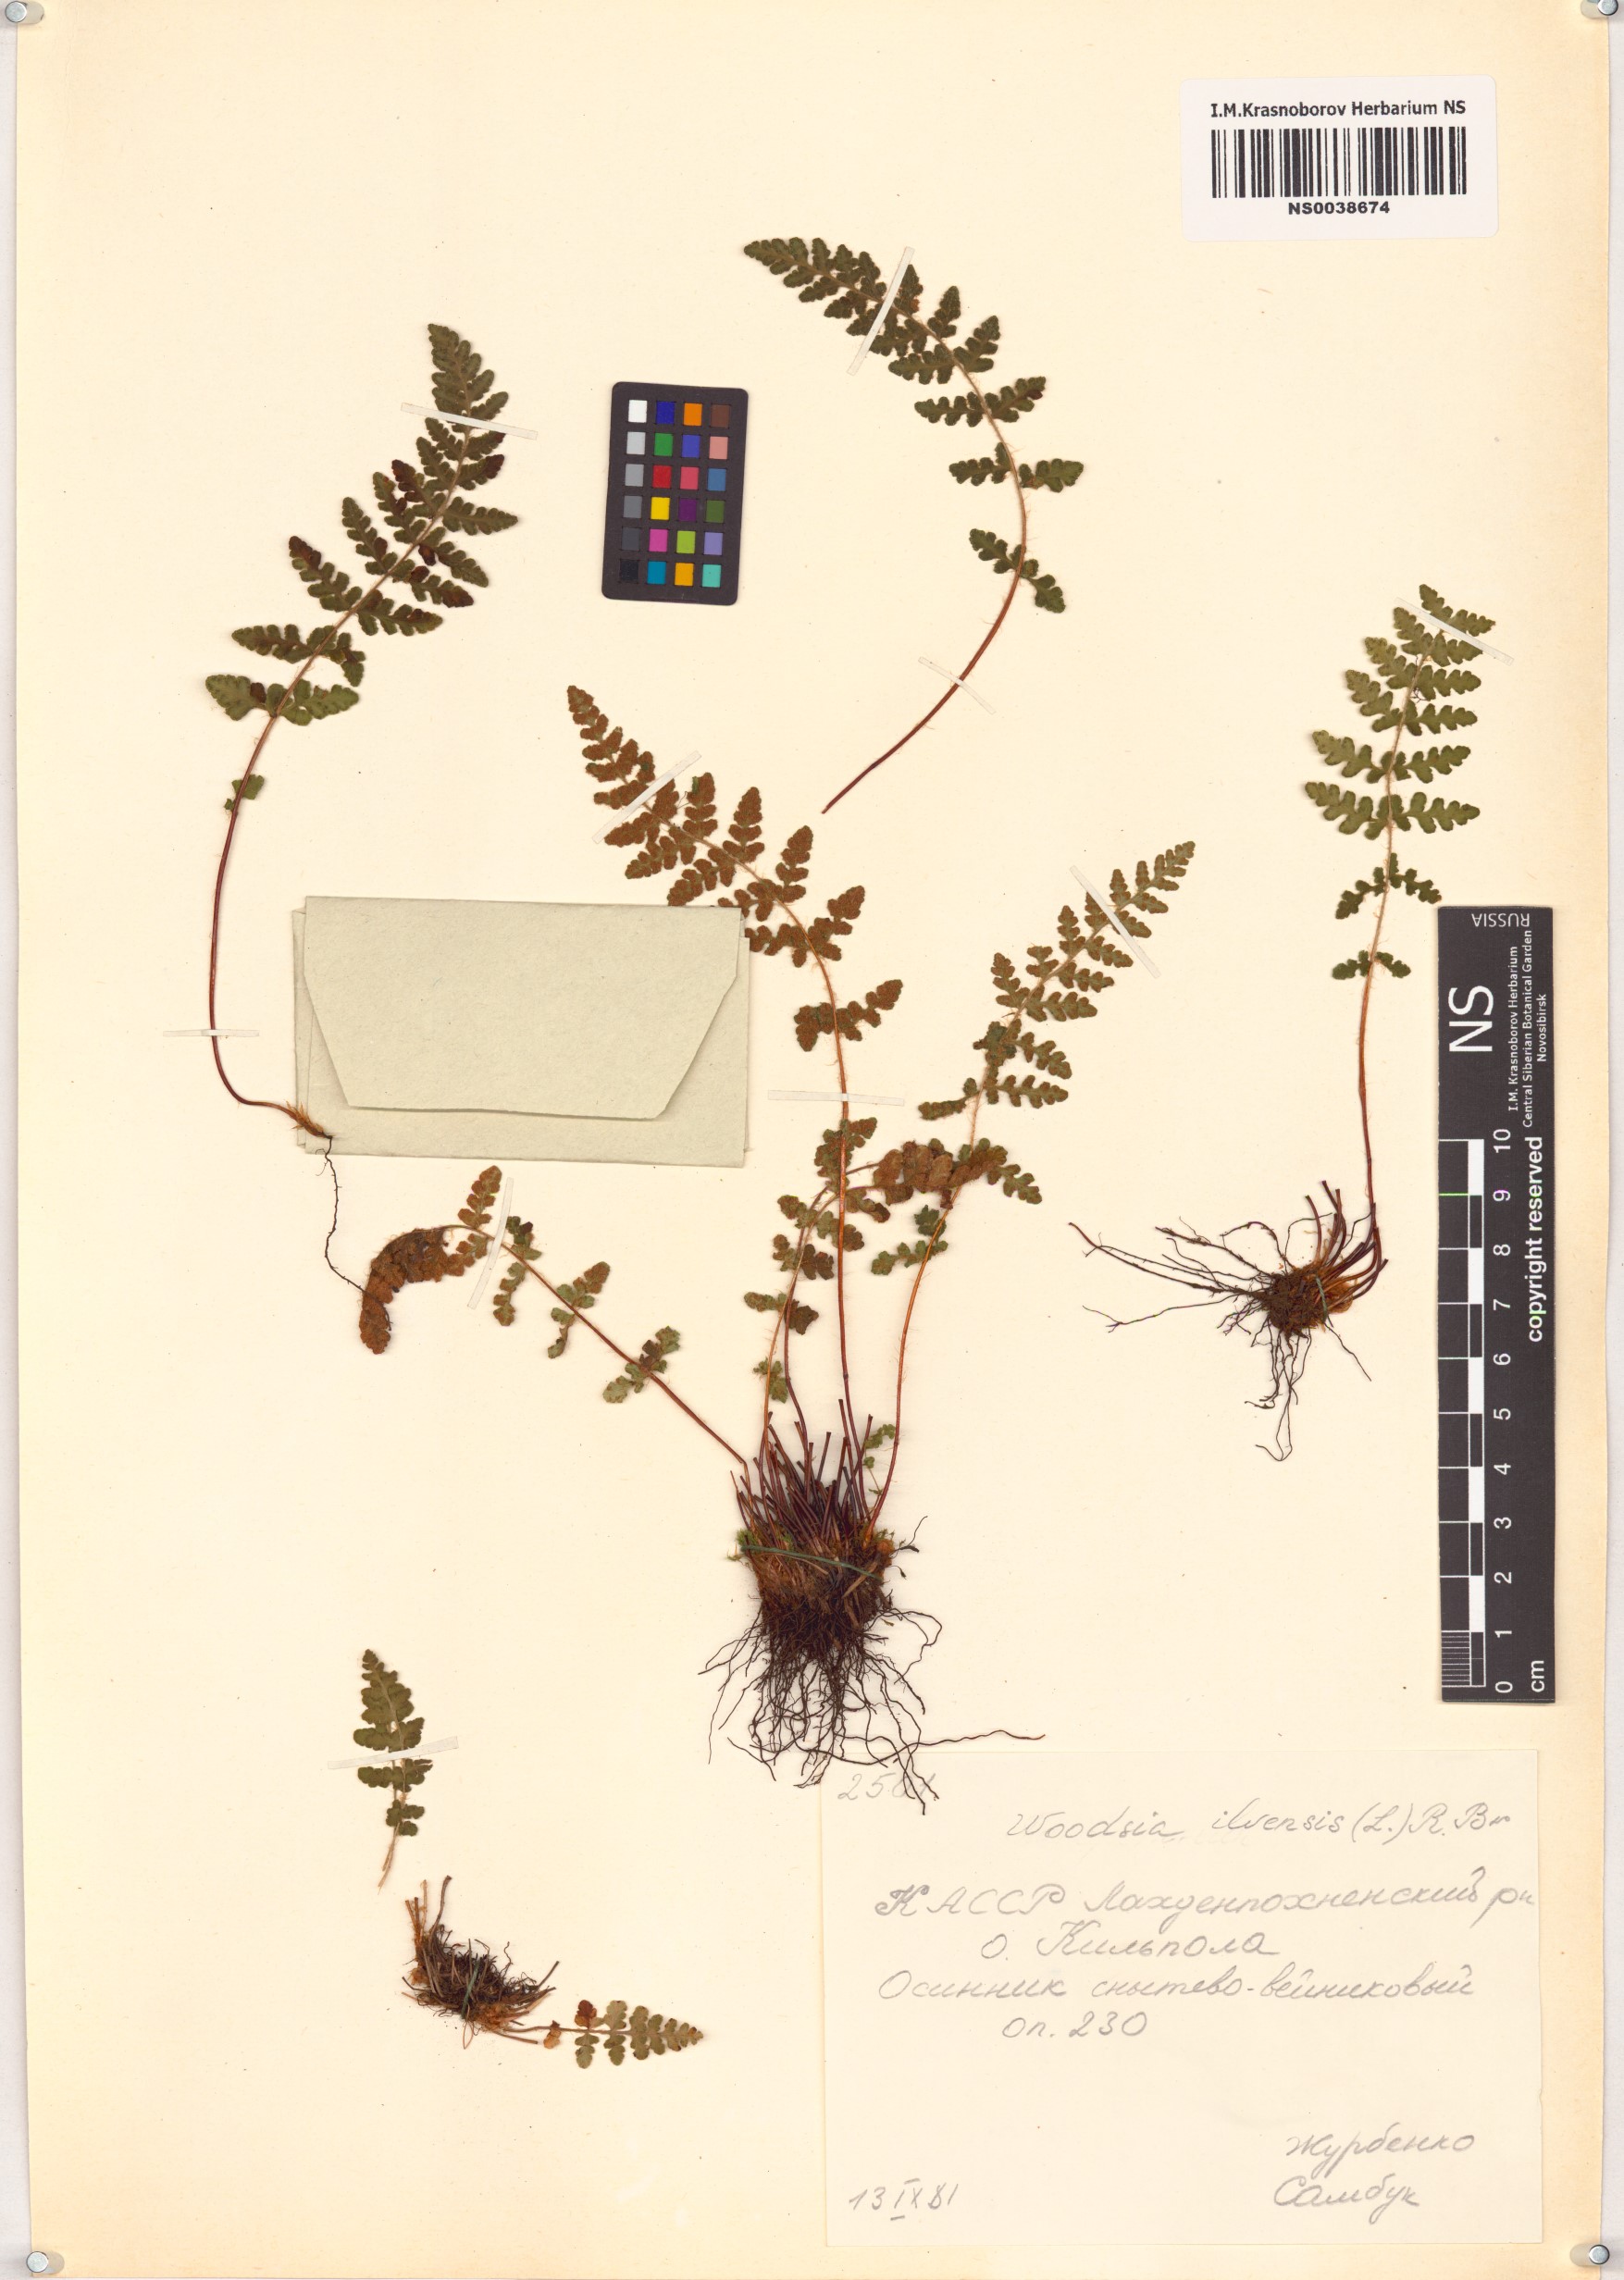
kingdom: Plantae
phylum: Tracheophyta
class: Polypodiopsida
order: Polypodiales
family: Woodsiaceae
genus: Woodsia
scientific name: Woodsia ilvensis
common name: Fragrant woodsia
